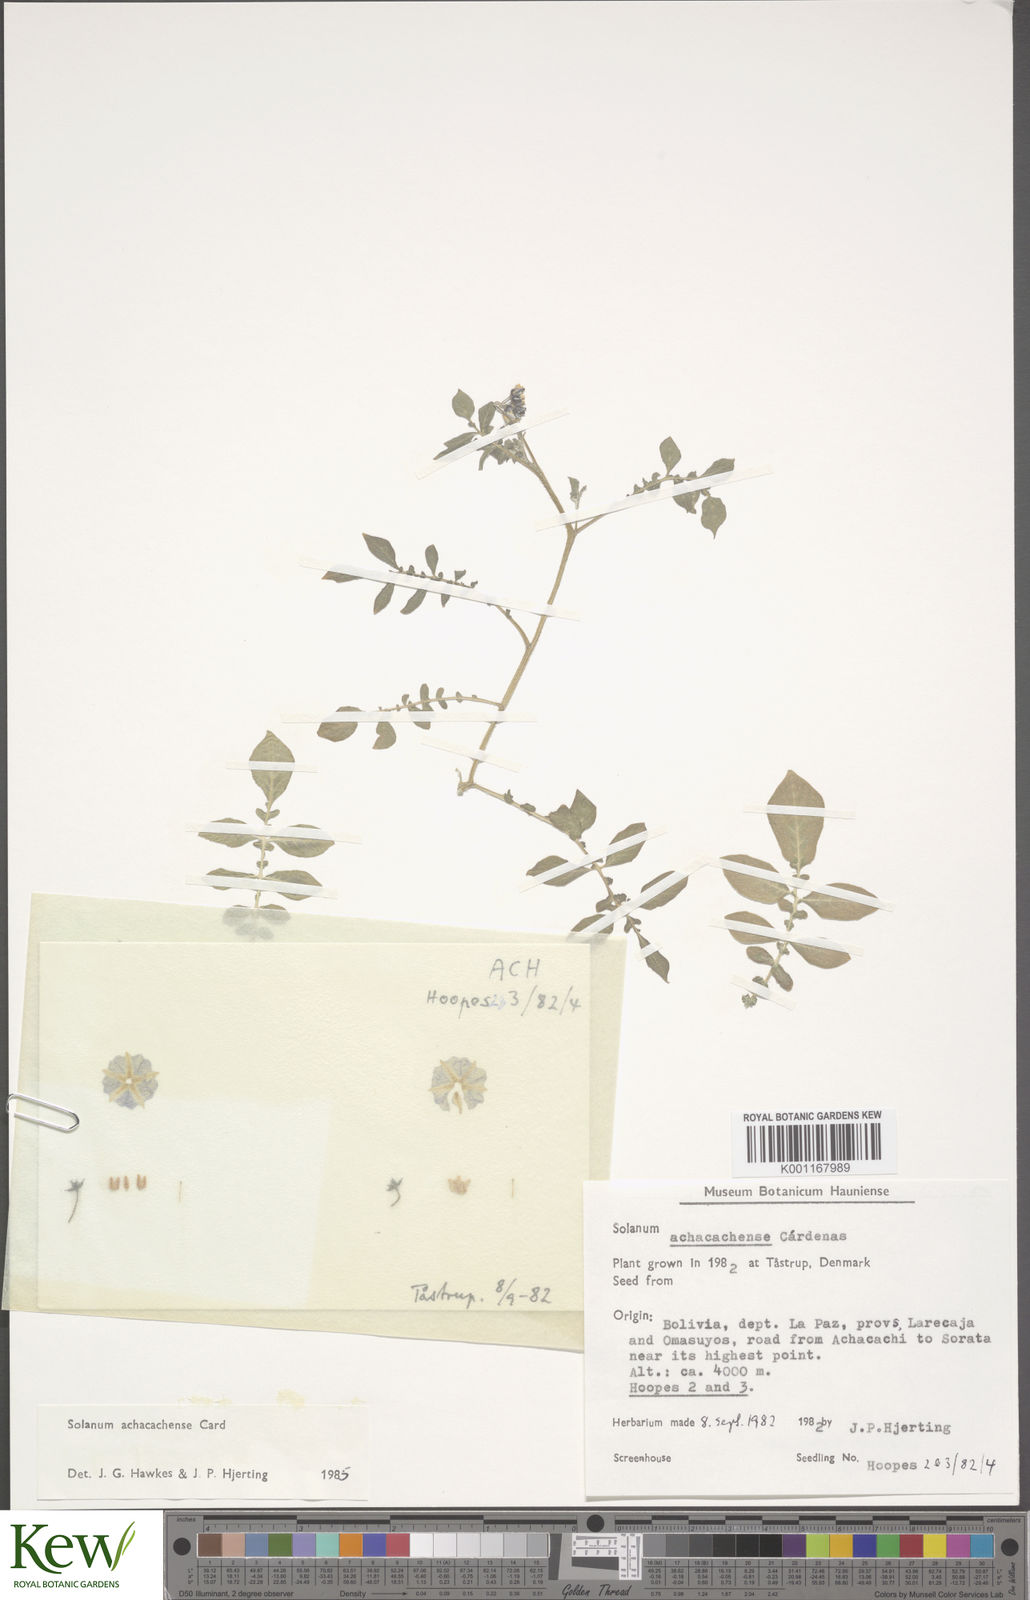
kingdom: Plantae
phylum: Tracheophyta
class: Magnoliopsida
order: Solanales
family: Solanaceae
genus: Solanum
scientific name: Solanum
